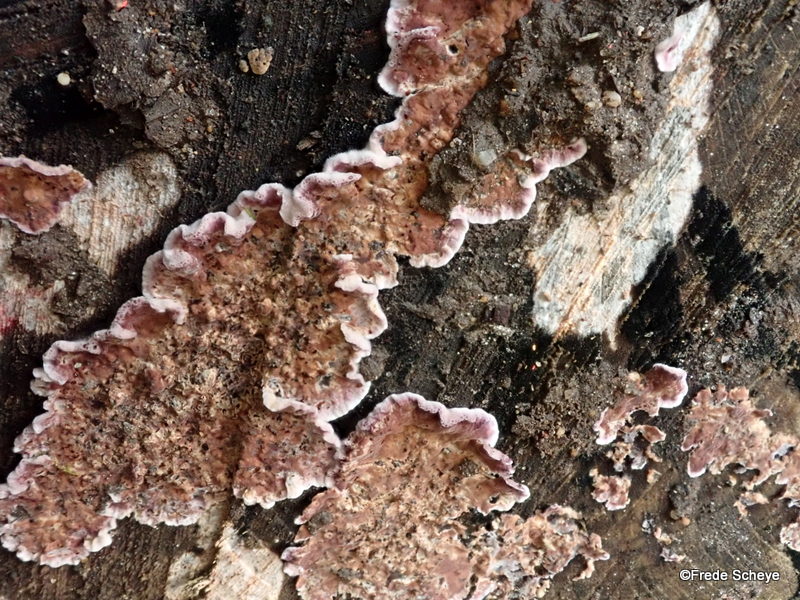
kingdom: Fungi
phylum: Basidiomycota
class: Agaricomycetes
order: Agaricales
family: Cyphellaceae
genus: Chondrostereum
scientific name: Chondrostereum purpureum
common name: purpurlædersvamp
